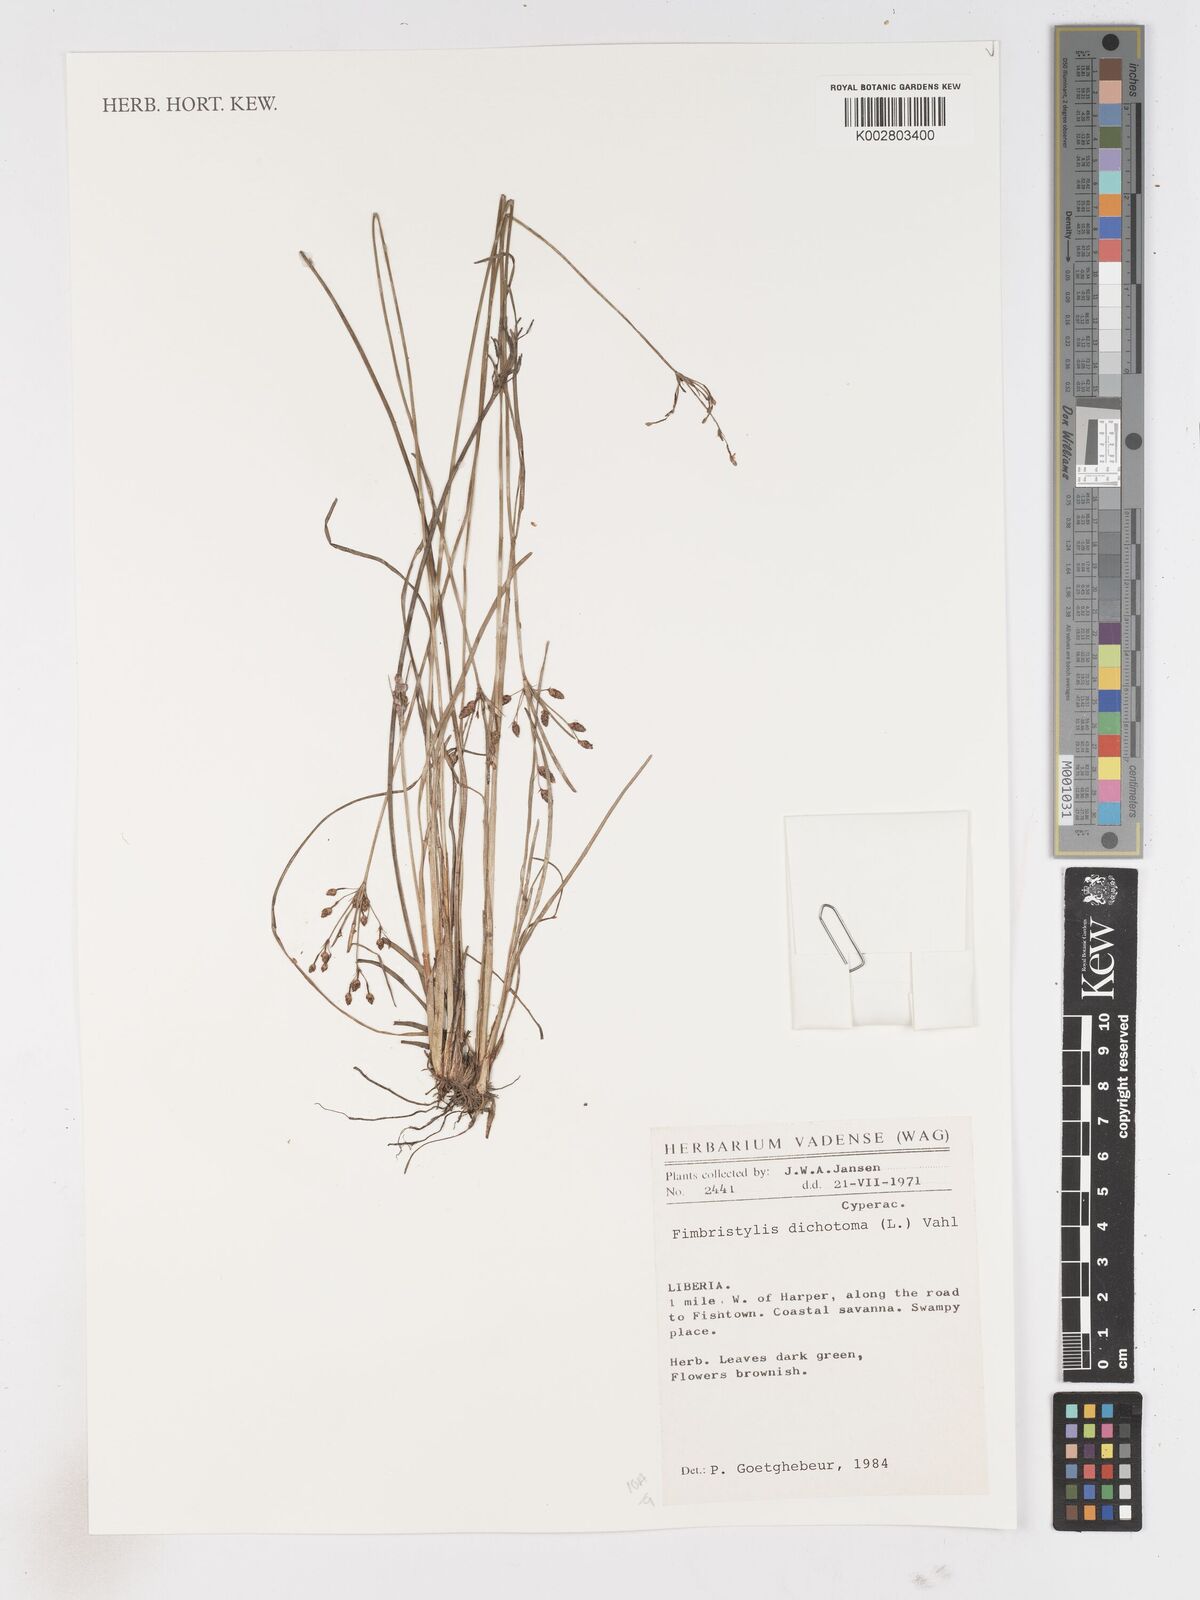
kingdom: Plantae
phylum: Tracheophyta
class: Liliopsida
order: Poales
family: Cyperaceae
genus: Fimbristylis
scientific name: Fimbristylis dichotoma
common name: Forked fimbry
